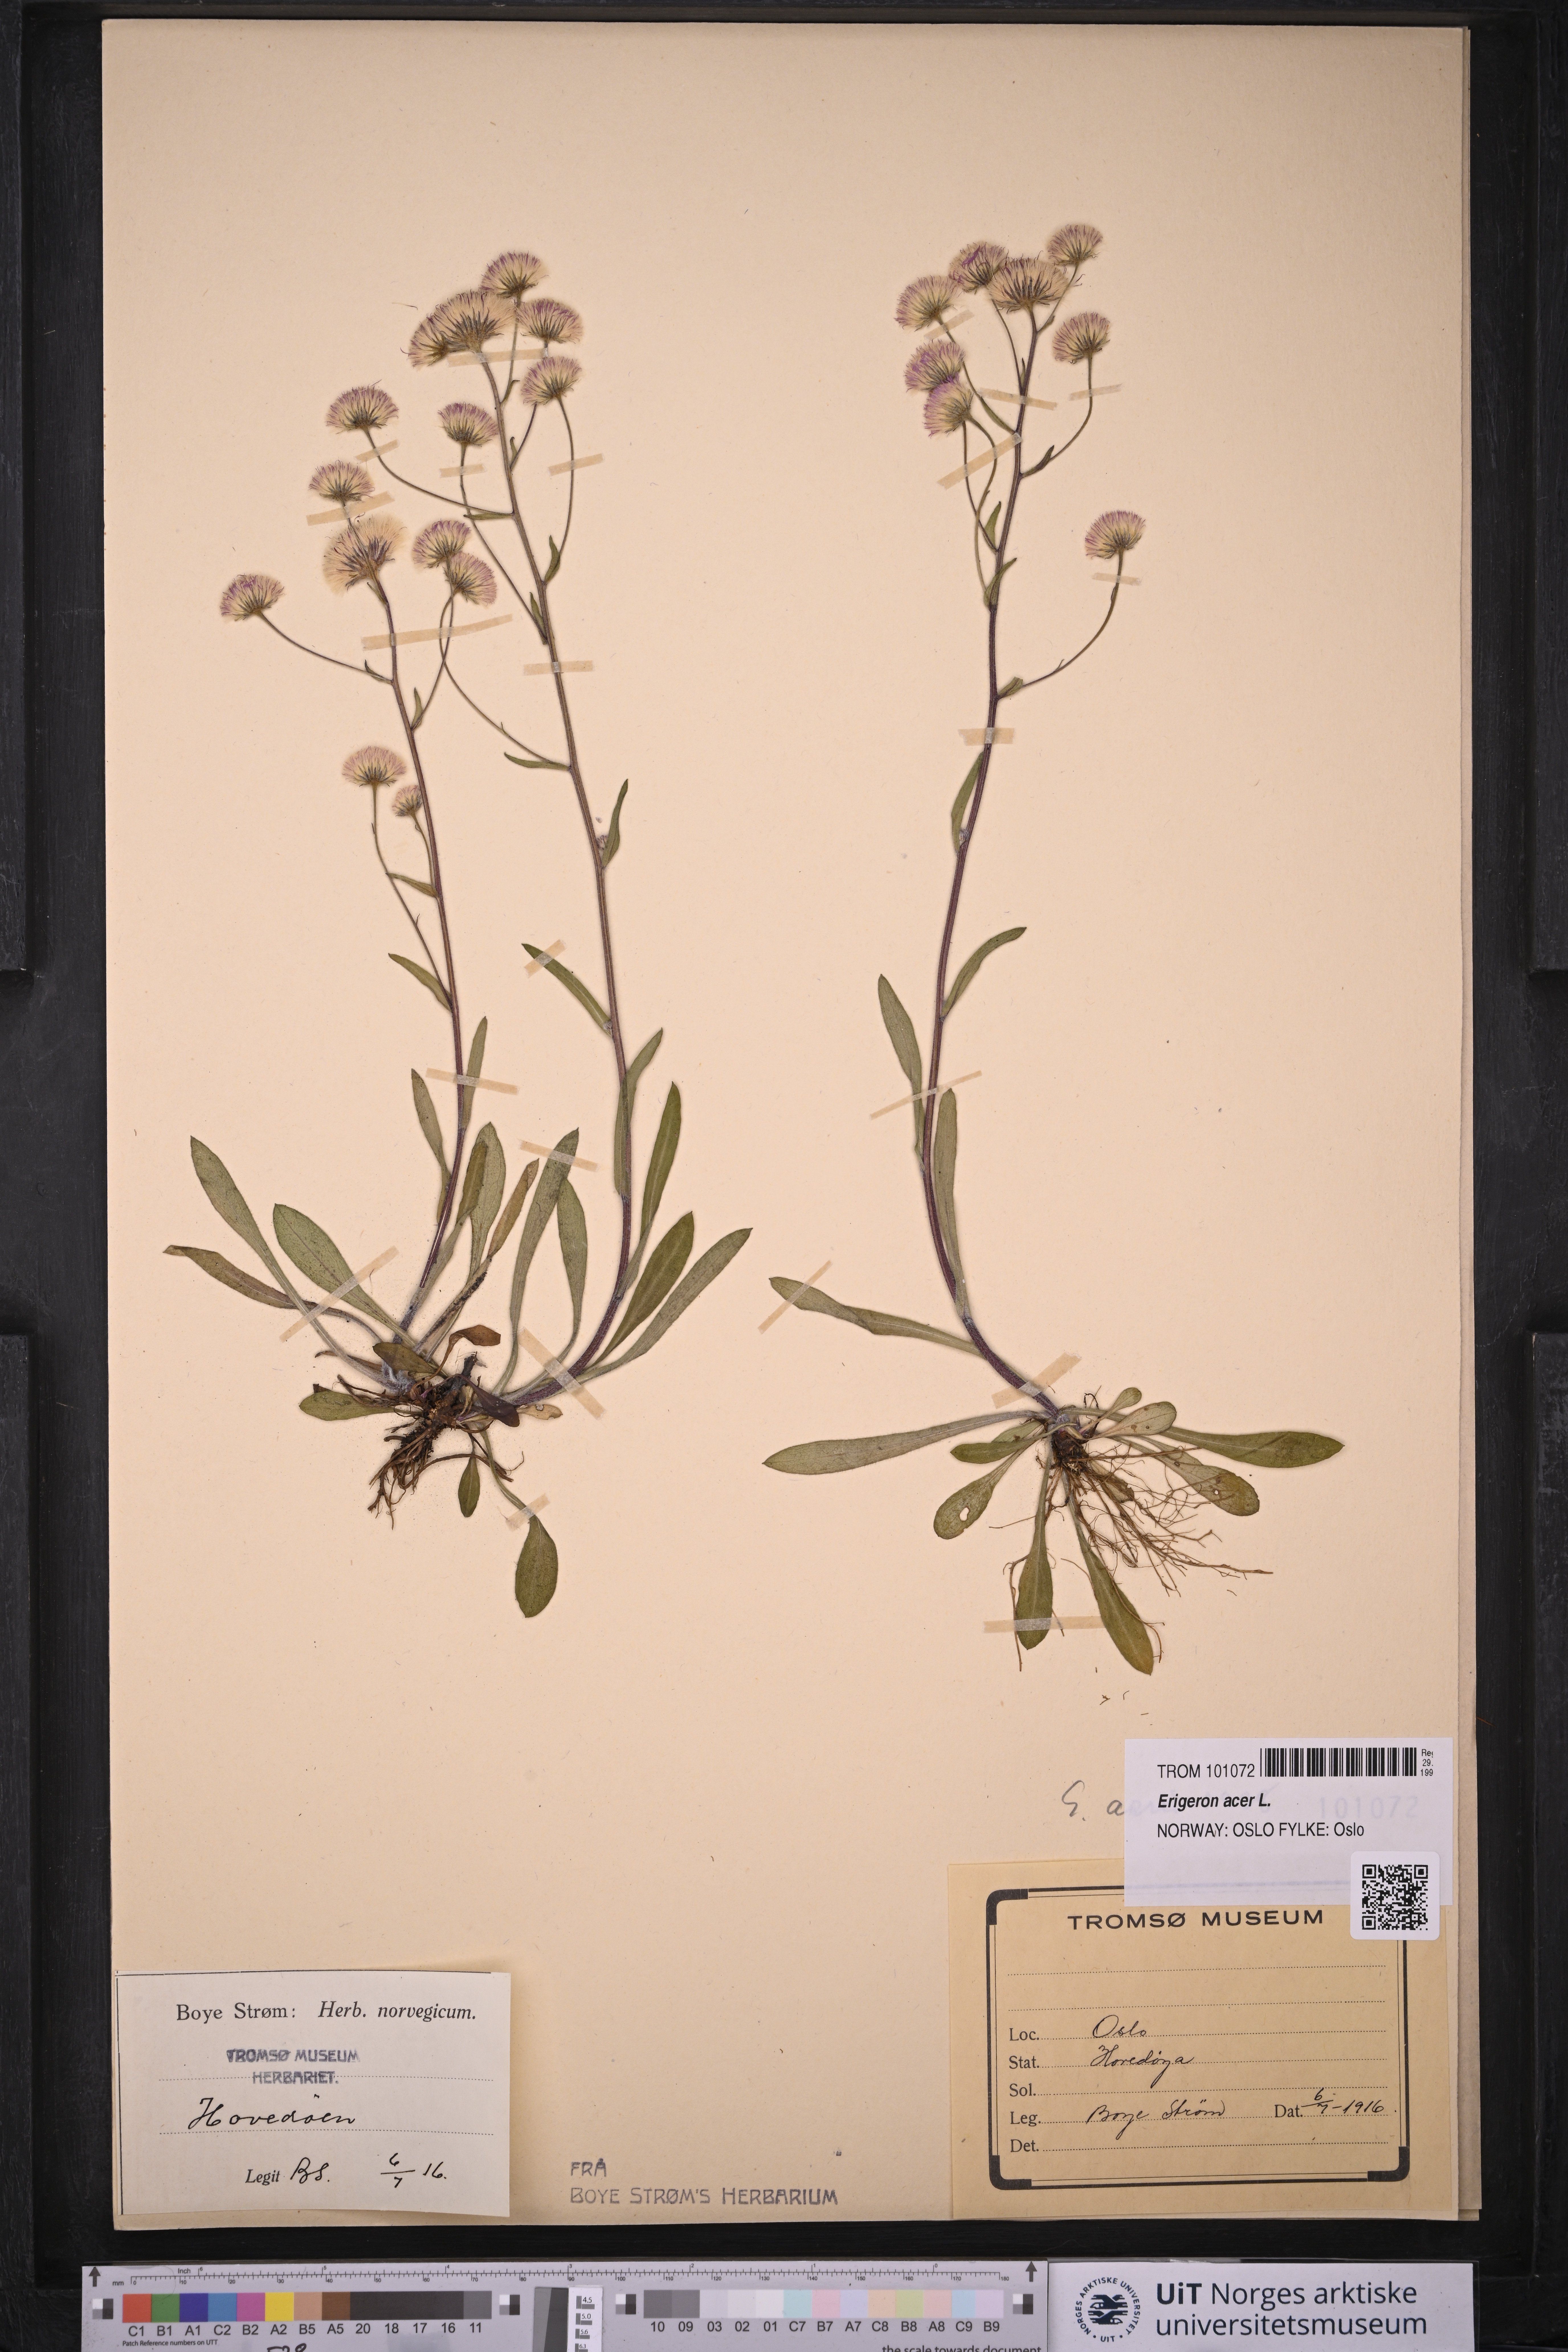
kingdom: Plantae
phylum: Tracheophyta
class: Magnoliopsida
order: Asterales
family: Asteraceae
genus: Erigeron
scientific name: Erigeron acris
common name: Blue fleabane
